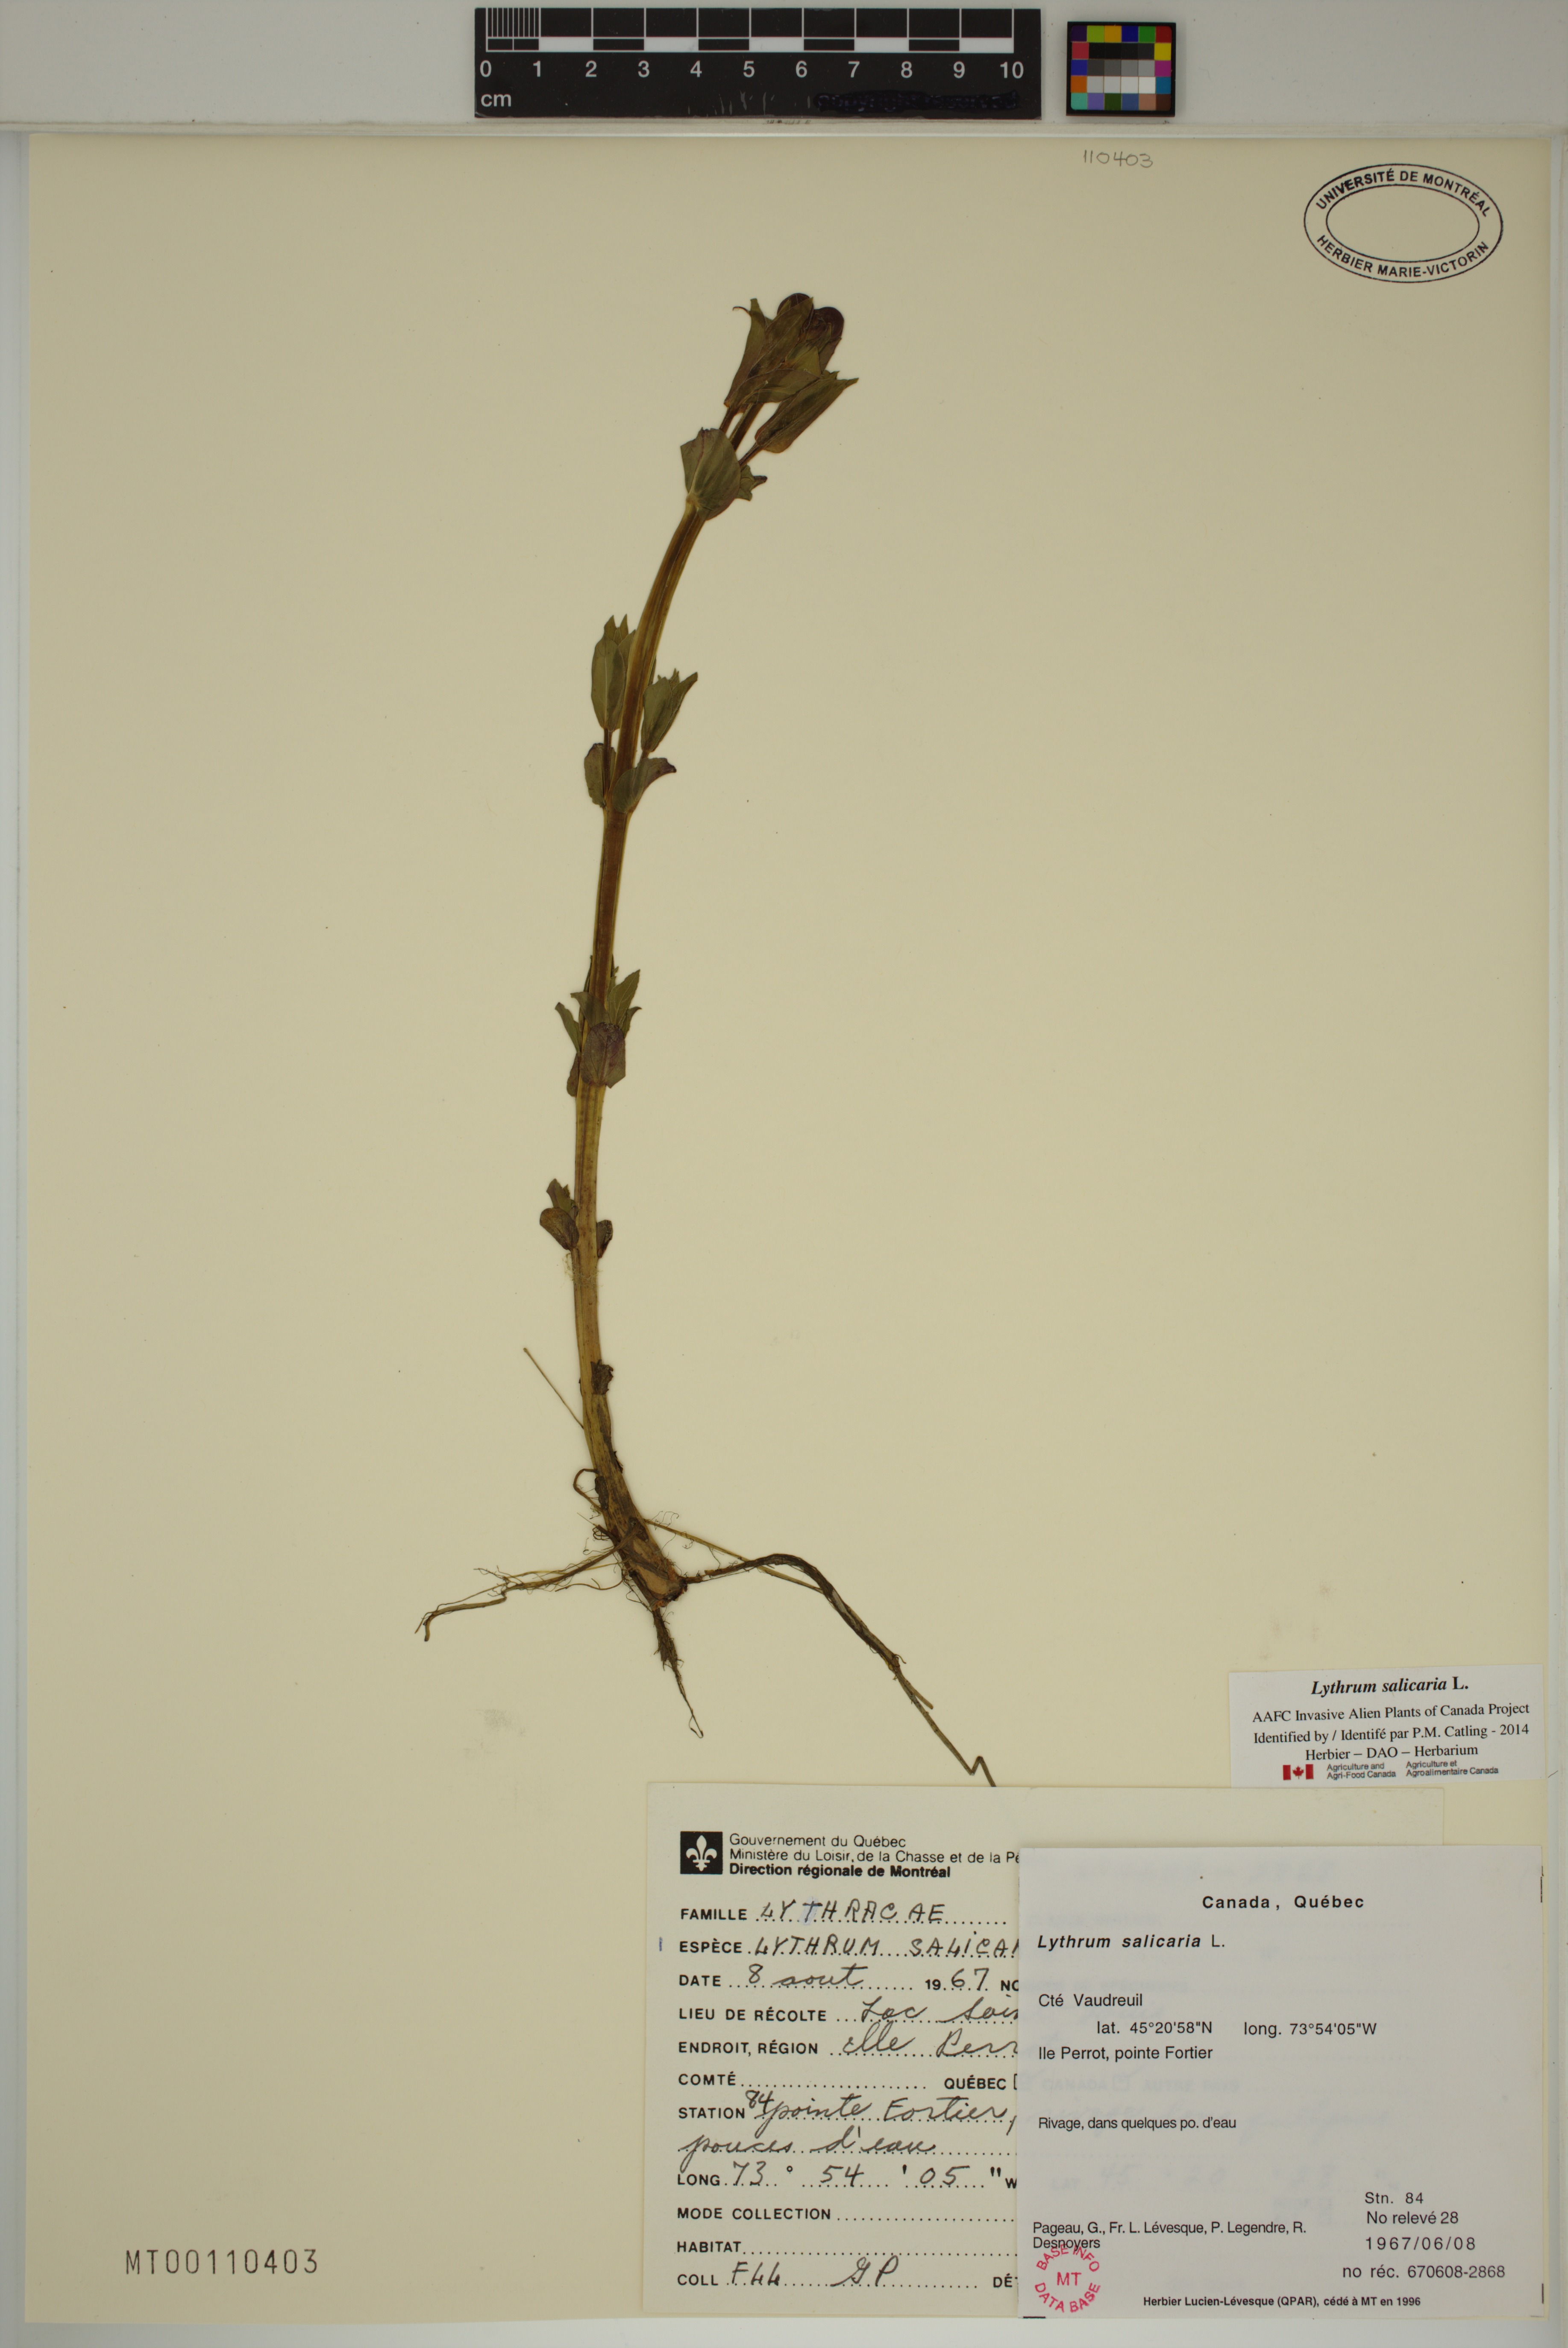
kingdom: Plantae
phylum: Tracheophyta
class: Magnoliopsida
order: Myrtales
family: Lythraceae
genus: Lythrum
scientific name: Lythrum salicaria
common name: Purple loosestrife
